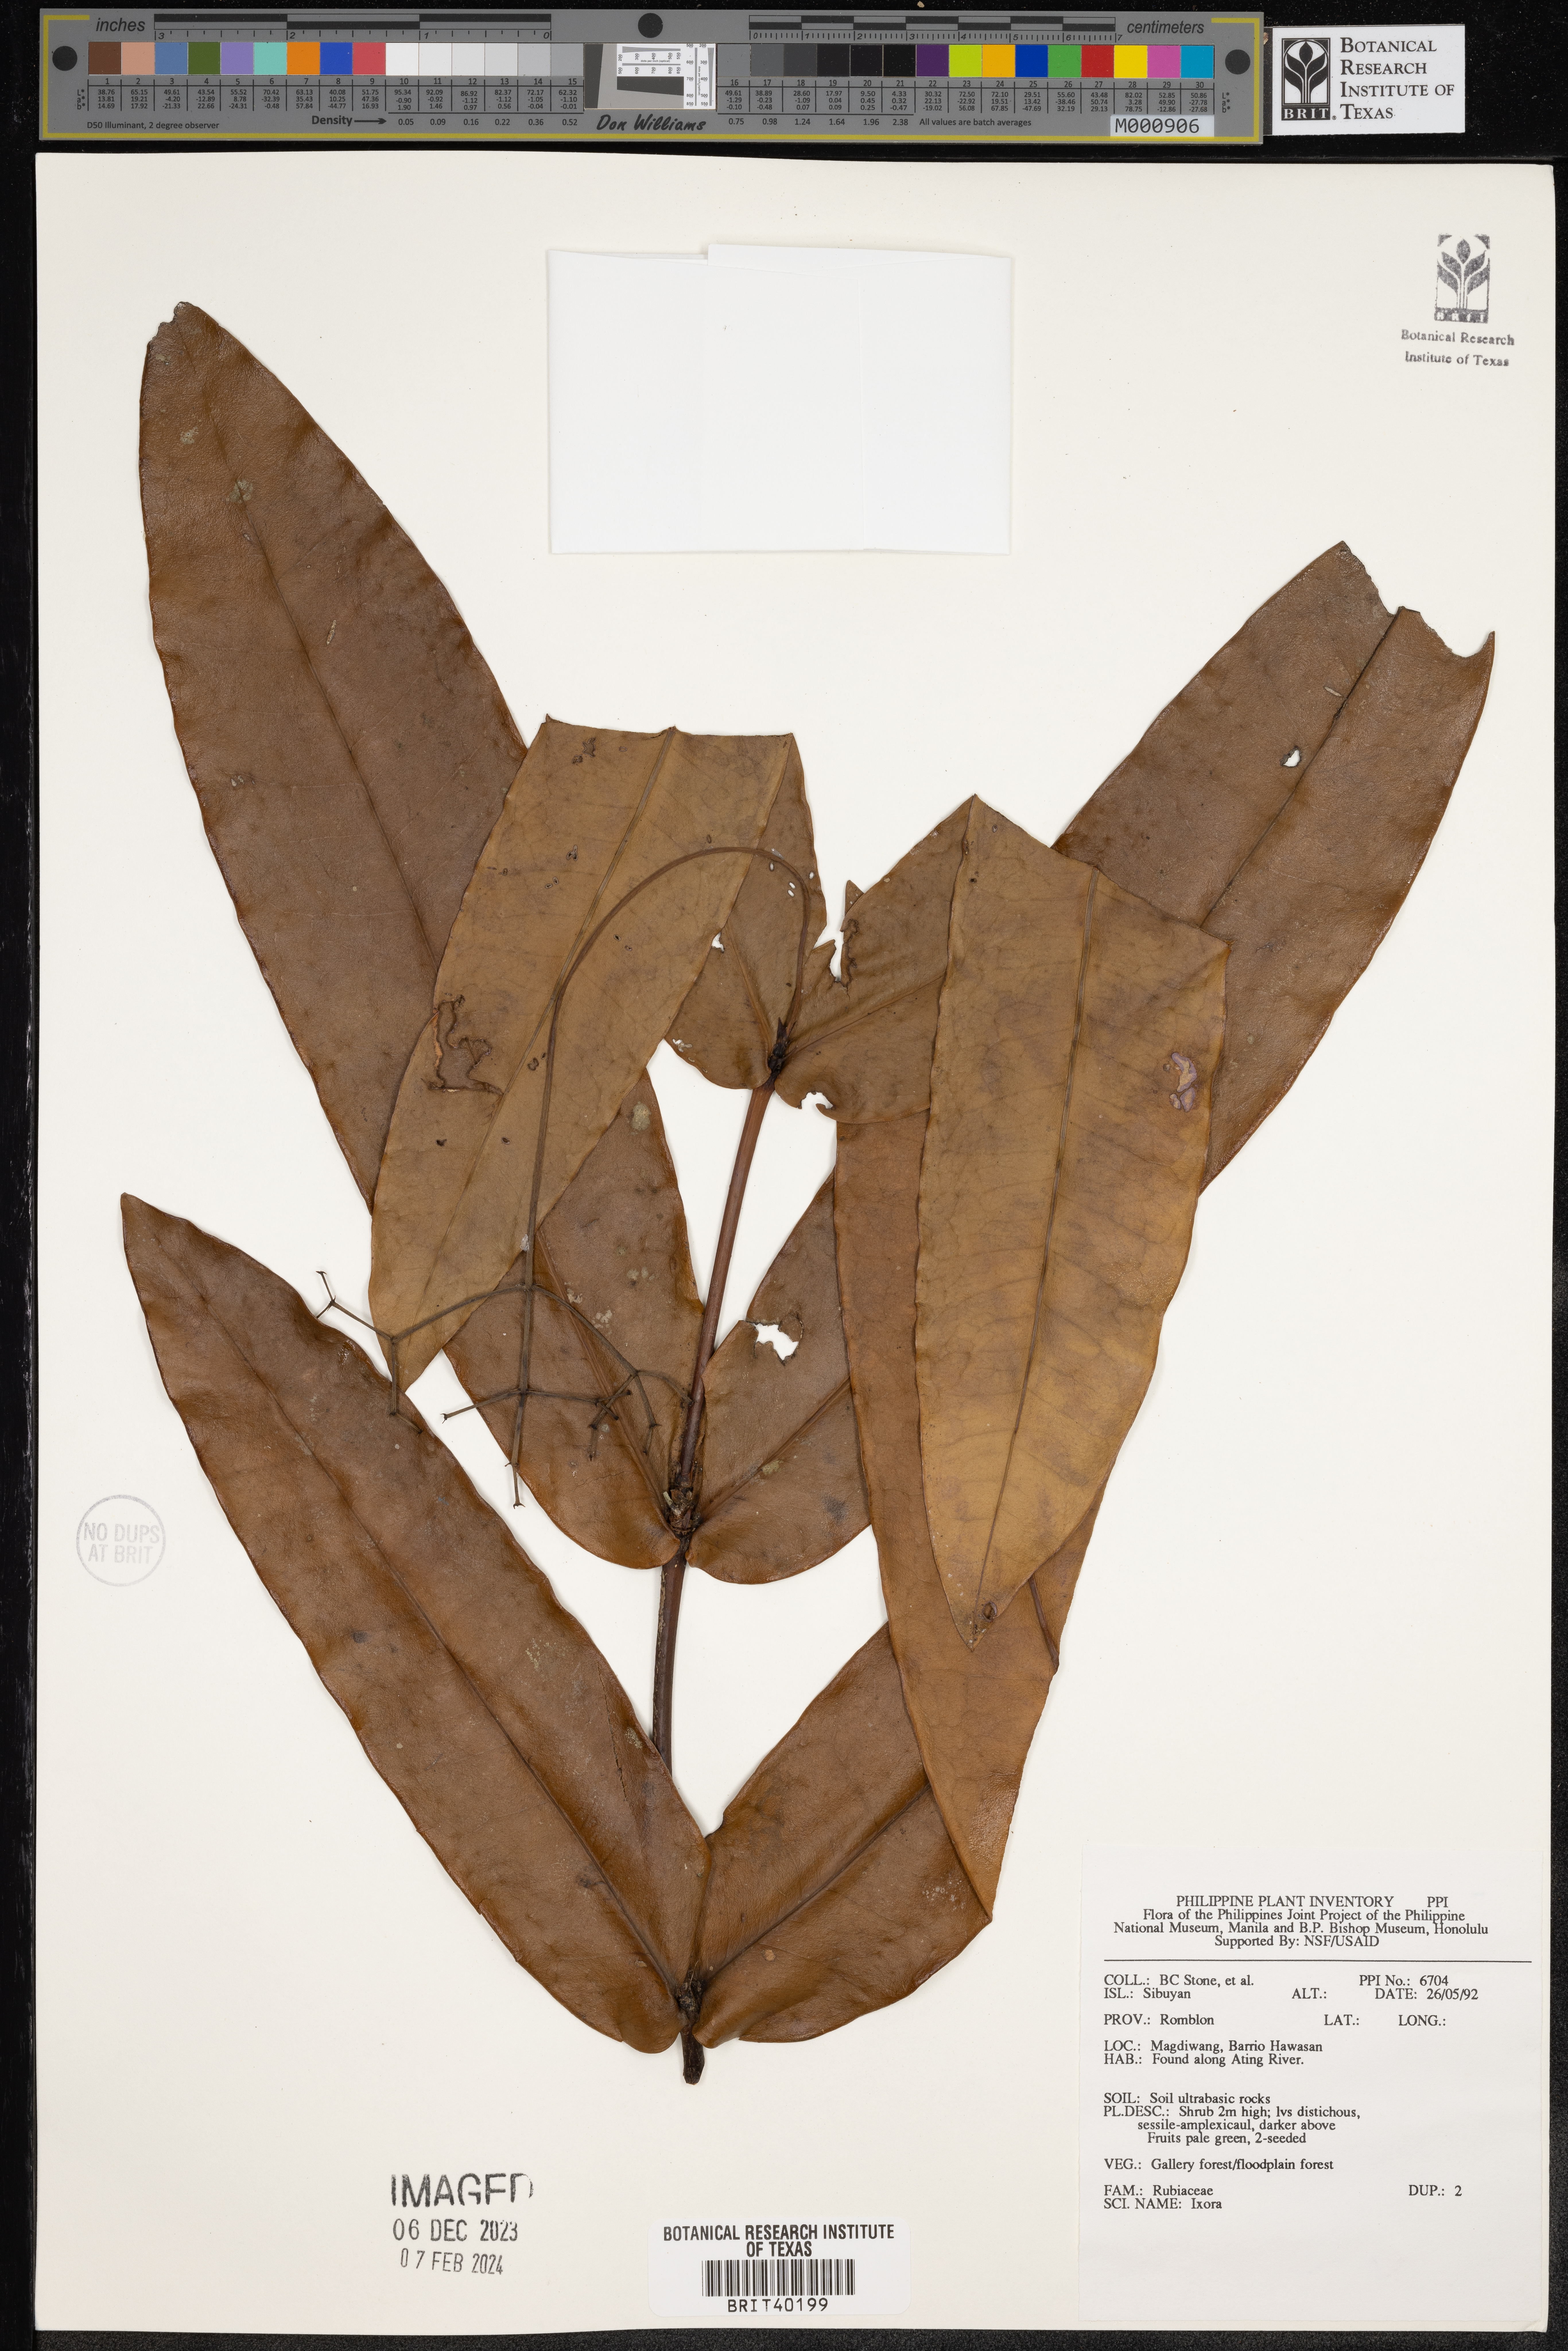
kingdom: Plantae
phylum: Tracheophyta
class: Magnoliopsida
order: Gentianales
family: Rubiaceae
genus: Ixora
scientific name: Ixora
